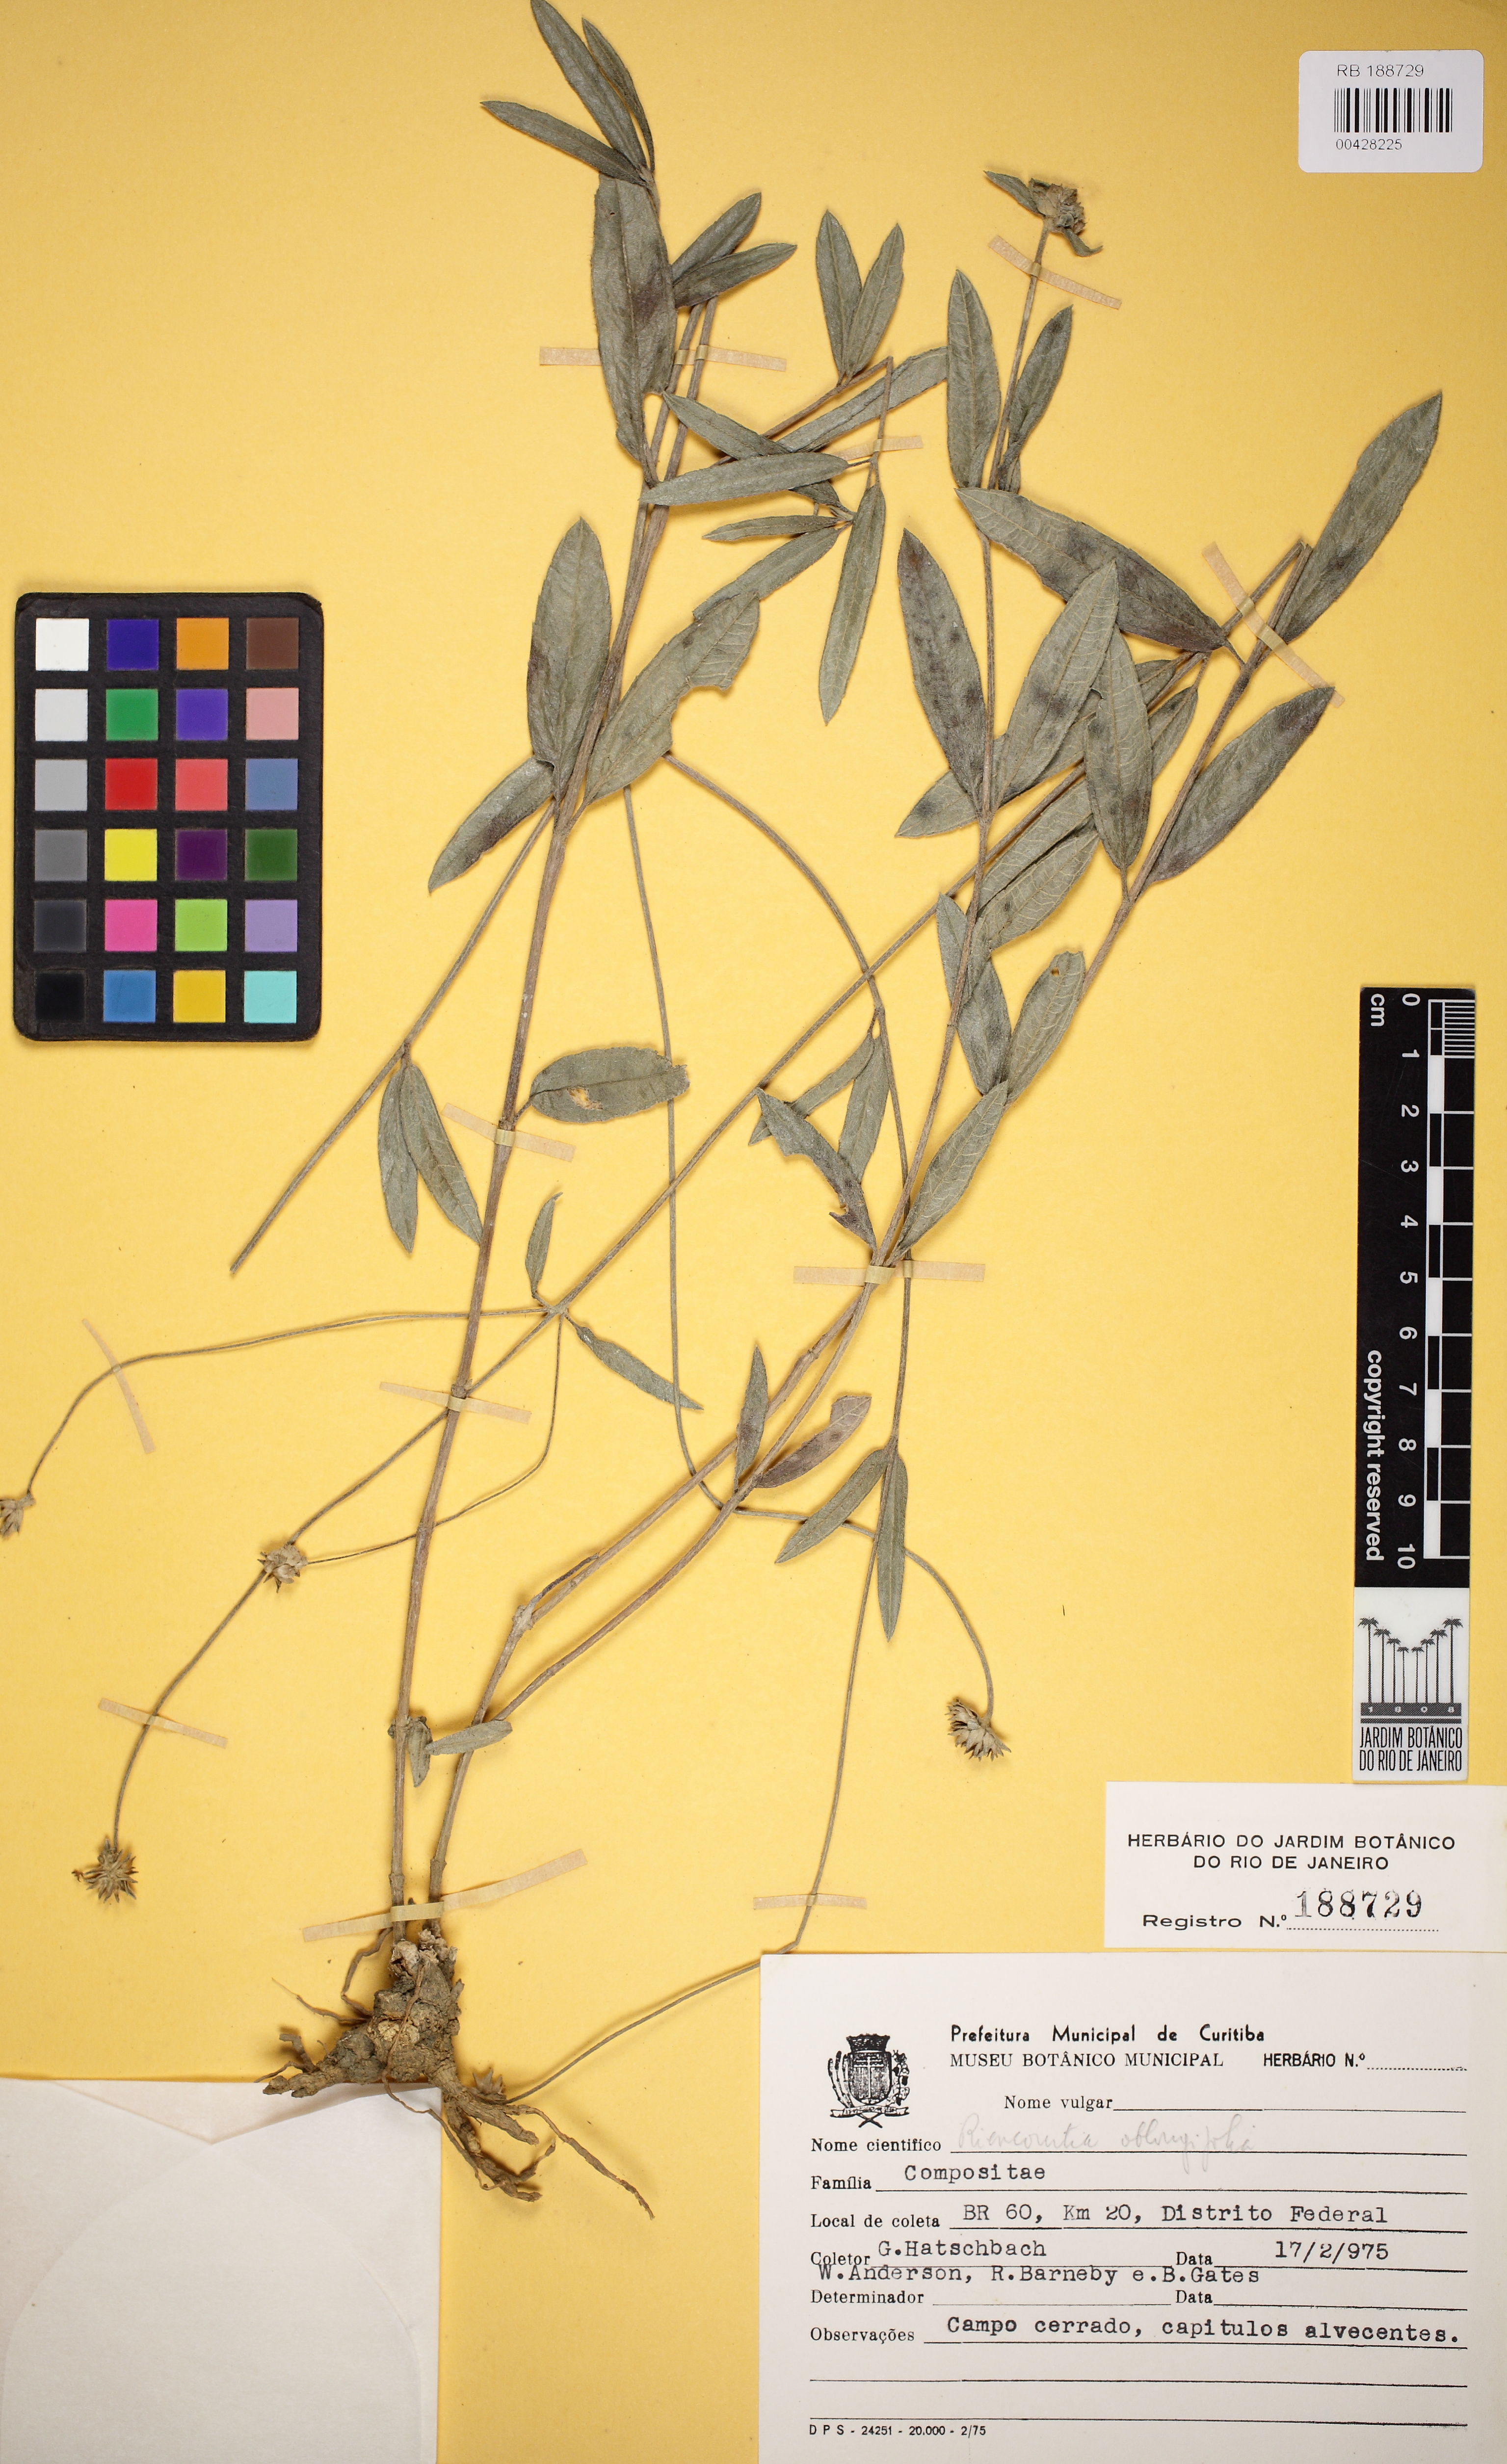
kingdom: Plantae
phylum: Tracheophyta
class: Magnoliopsida
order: Asterales
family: Asteraceae
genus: Riencourtia
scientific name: Riencourtia oblongifolia
